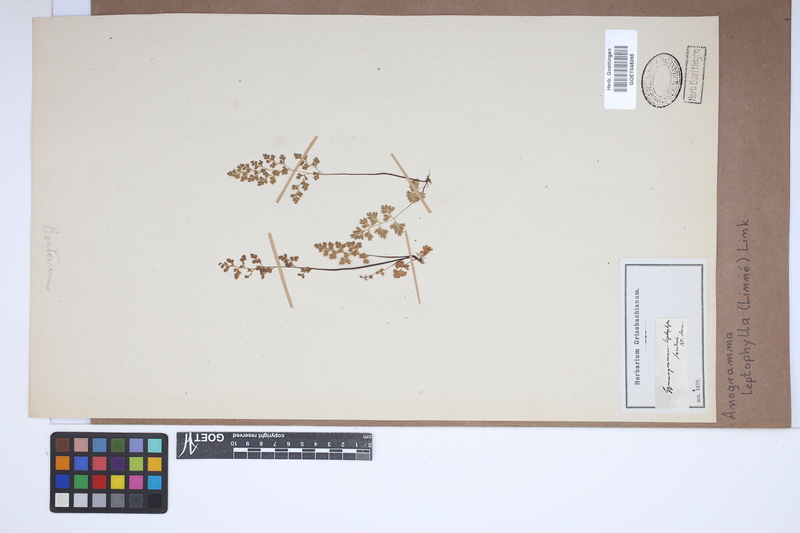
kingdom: Plantae
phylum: Tracheophyta
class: Polypodiopsida
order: Polypodiales
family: Pteridaceae
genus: Anogramma
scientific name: Anogramma leptophylla
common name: Jersey fern
